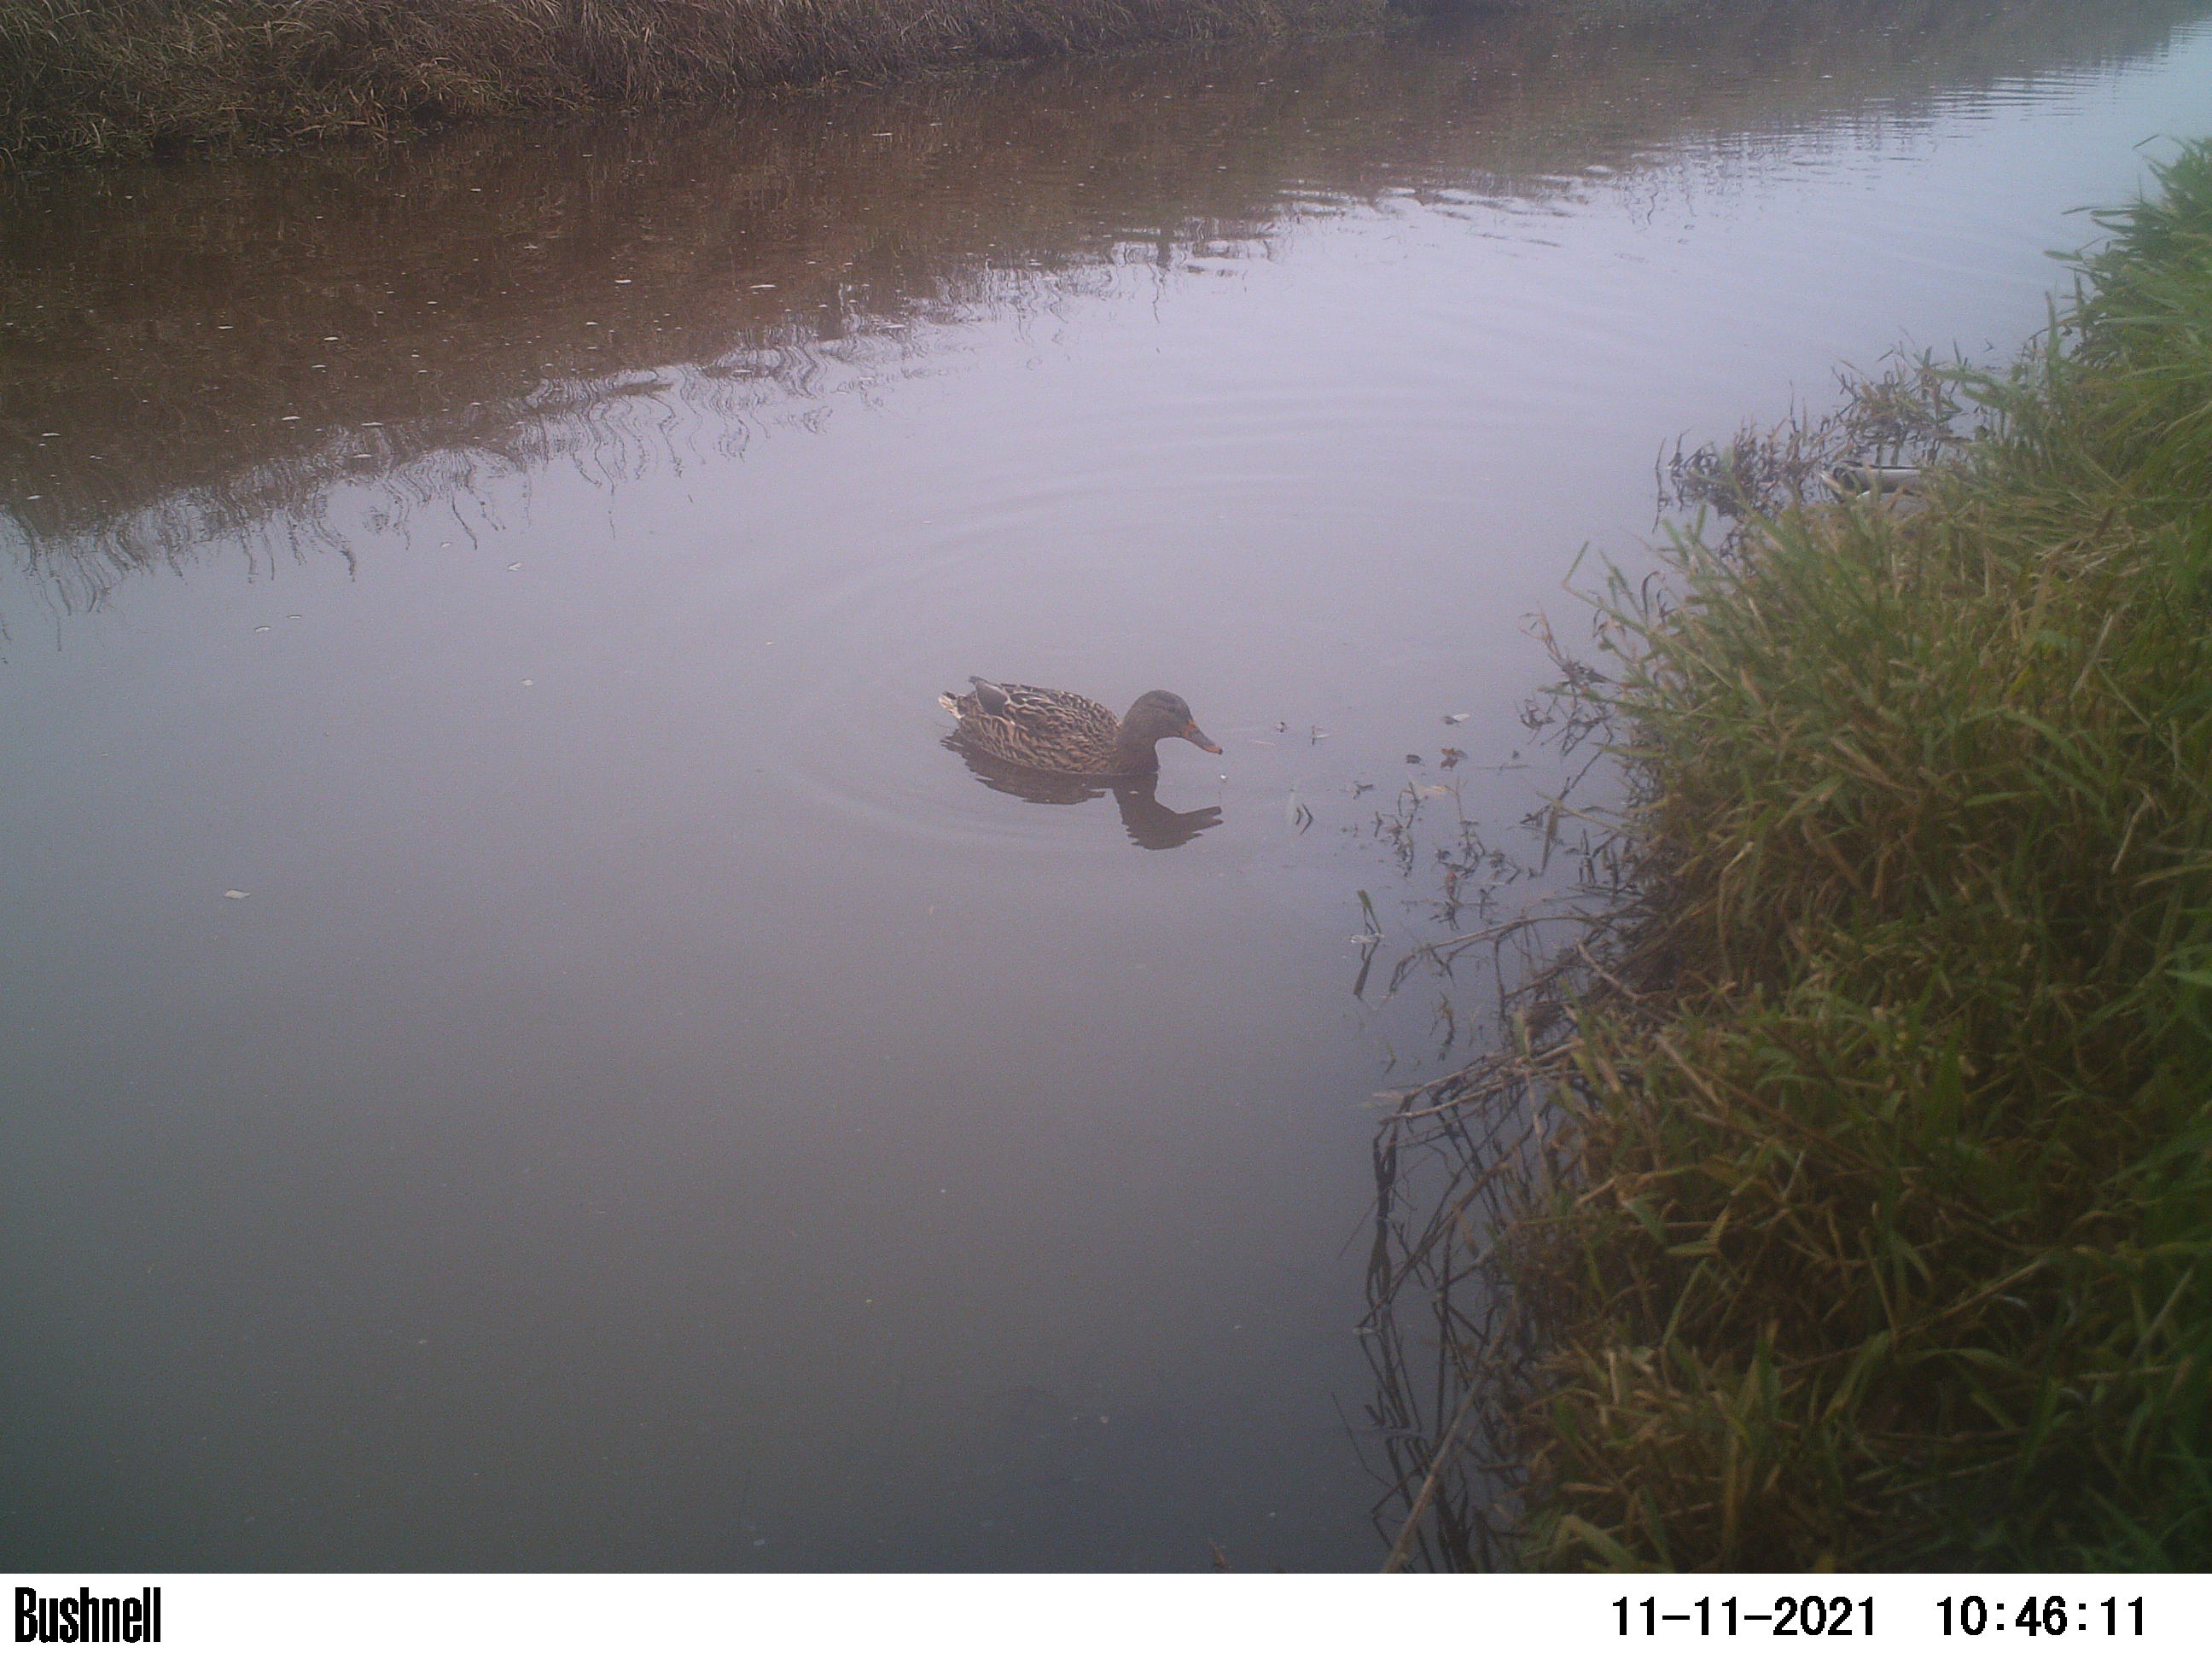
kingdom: Animalia
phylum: Chordata
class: Aves
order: Anseriformes
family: Anatidae
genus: Anas
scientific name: Anas
